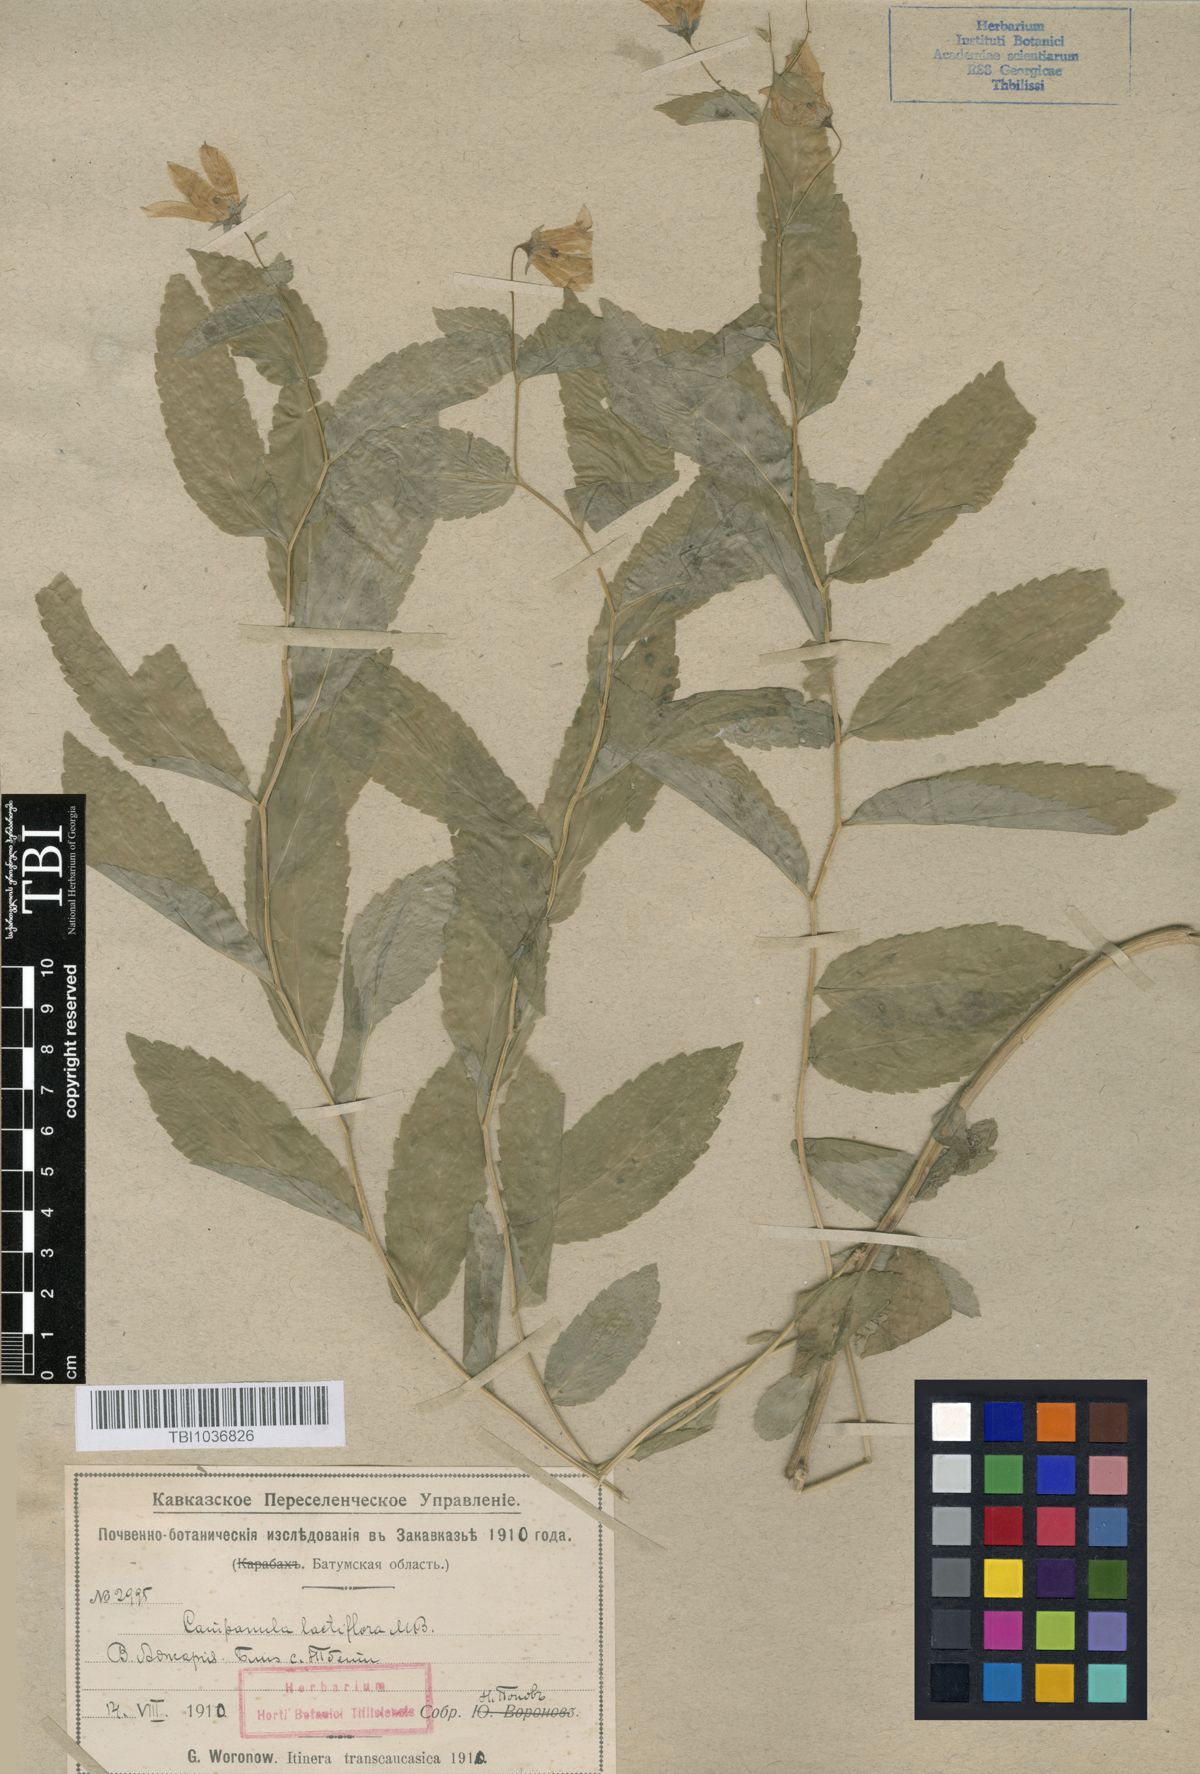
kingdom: Plantae
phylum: Tracheophyta
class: Magnoliopsida
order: Asterales
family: Campanulaceae
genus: Campanula
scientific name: Campanula lactiflora
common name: Milky bellflower
